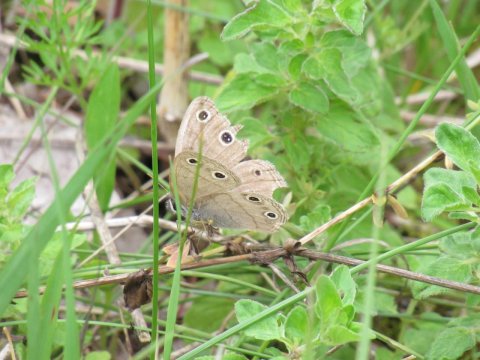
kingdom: Animalia
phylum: Arthropoda
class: Insecta
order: Lepidoptera
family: Nymphalidae
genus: Euptychia
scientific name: Euptychia cymela
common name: Little Wood Satyr
